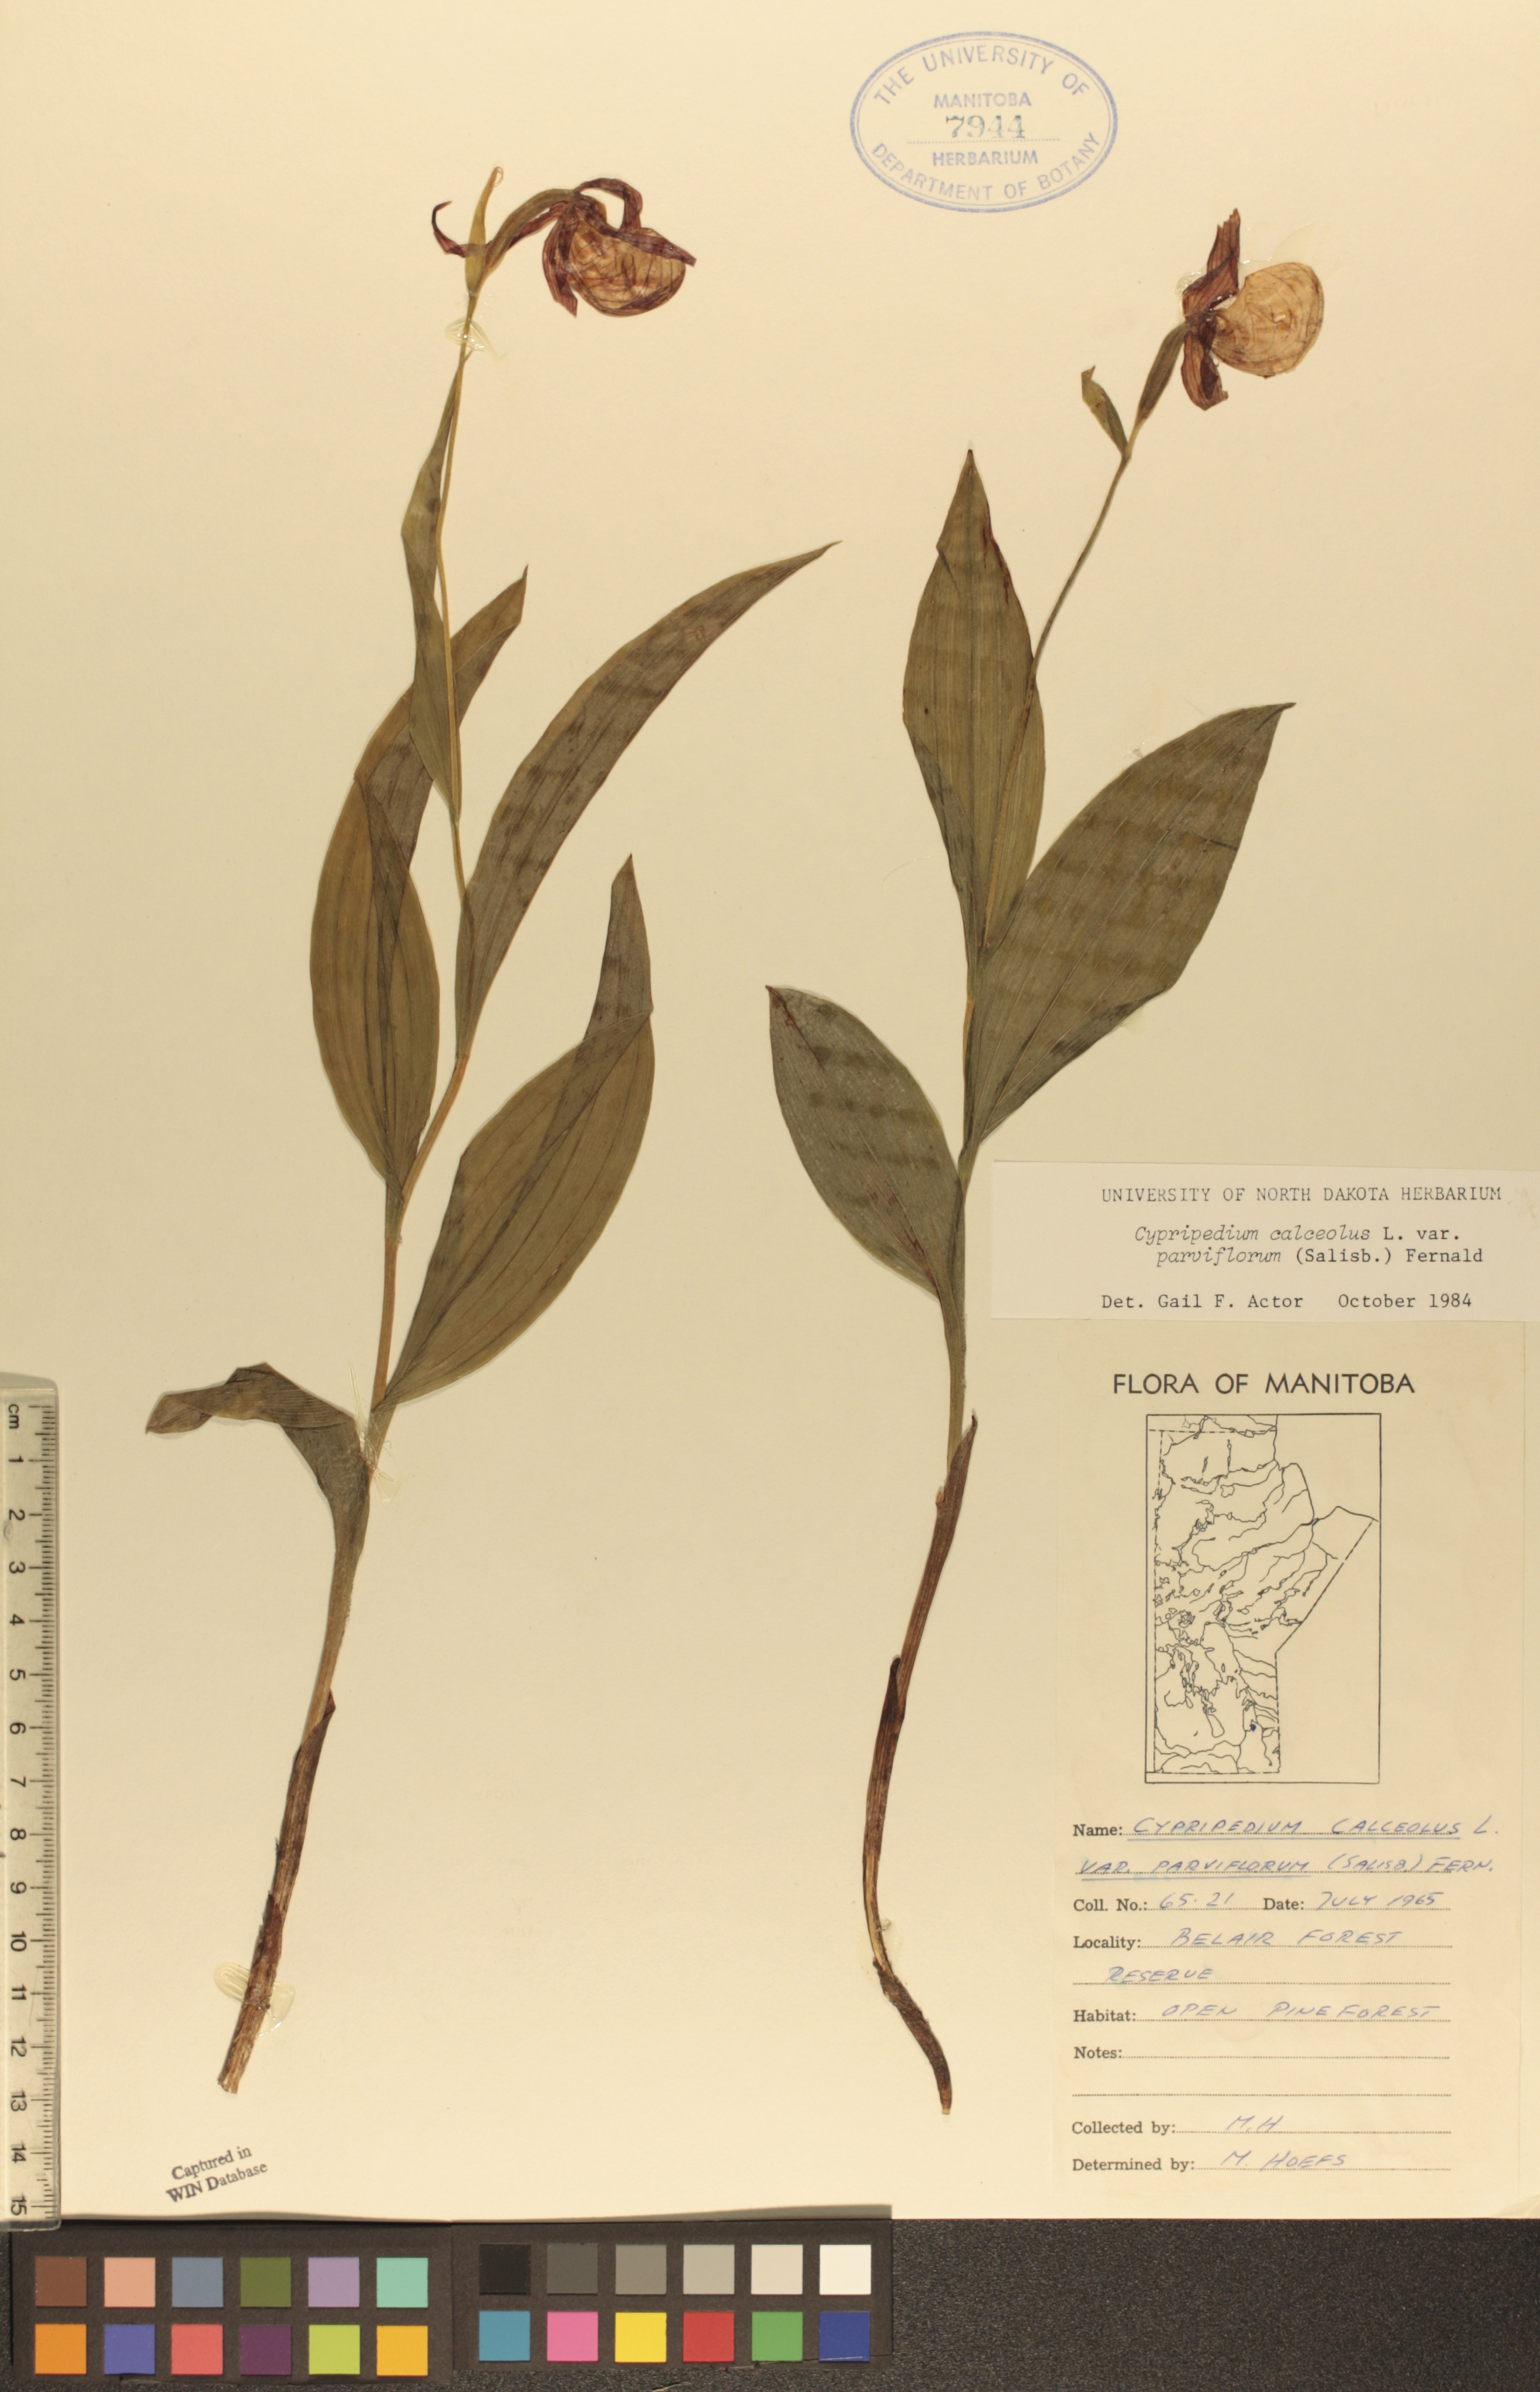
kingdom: Plantae
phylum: Tracheophyta
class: Liliopsida
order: Asparagales
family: Orchidaceae
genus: Cypripedium
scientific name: Cypripedium parviflorum
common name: American yellow lady's-slipper
